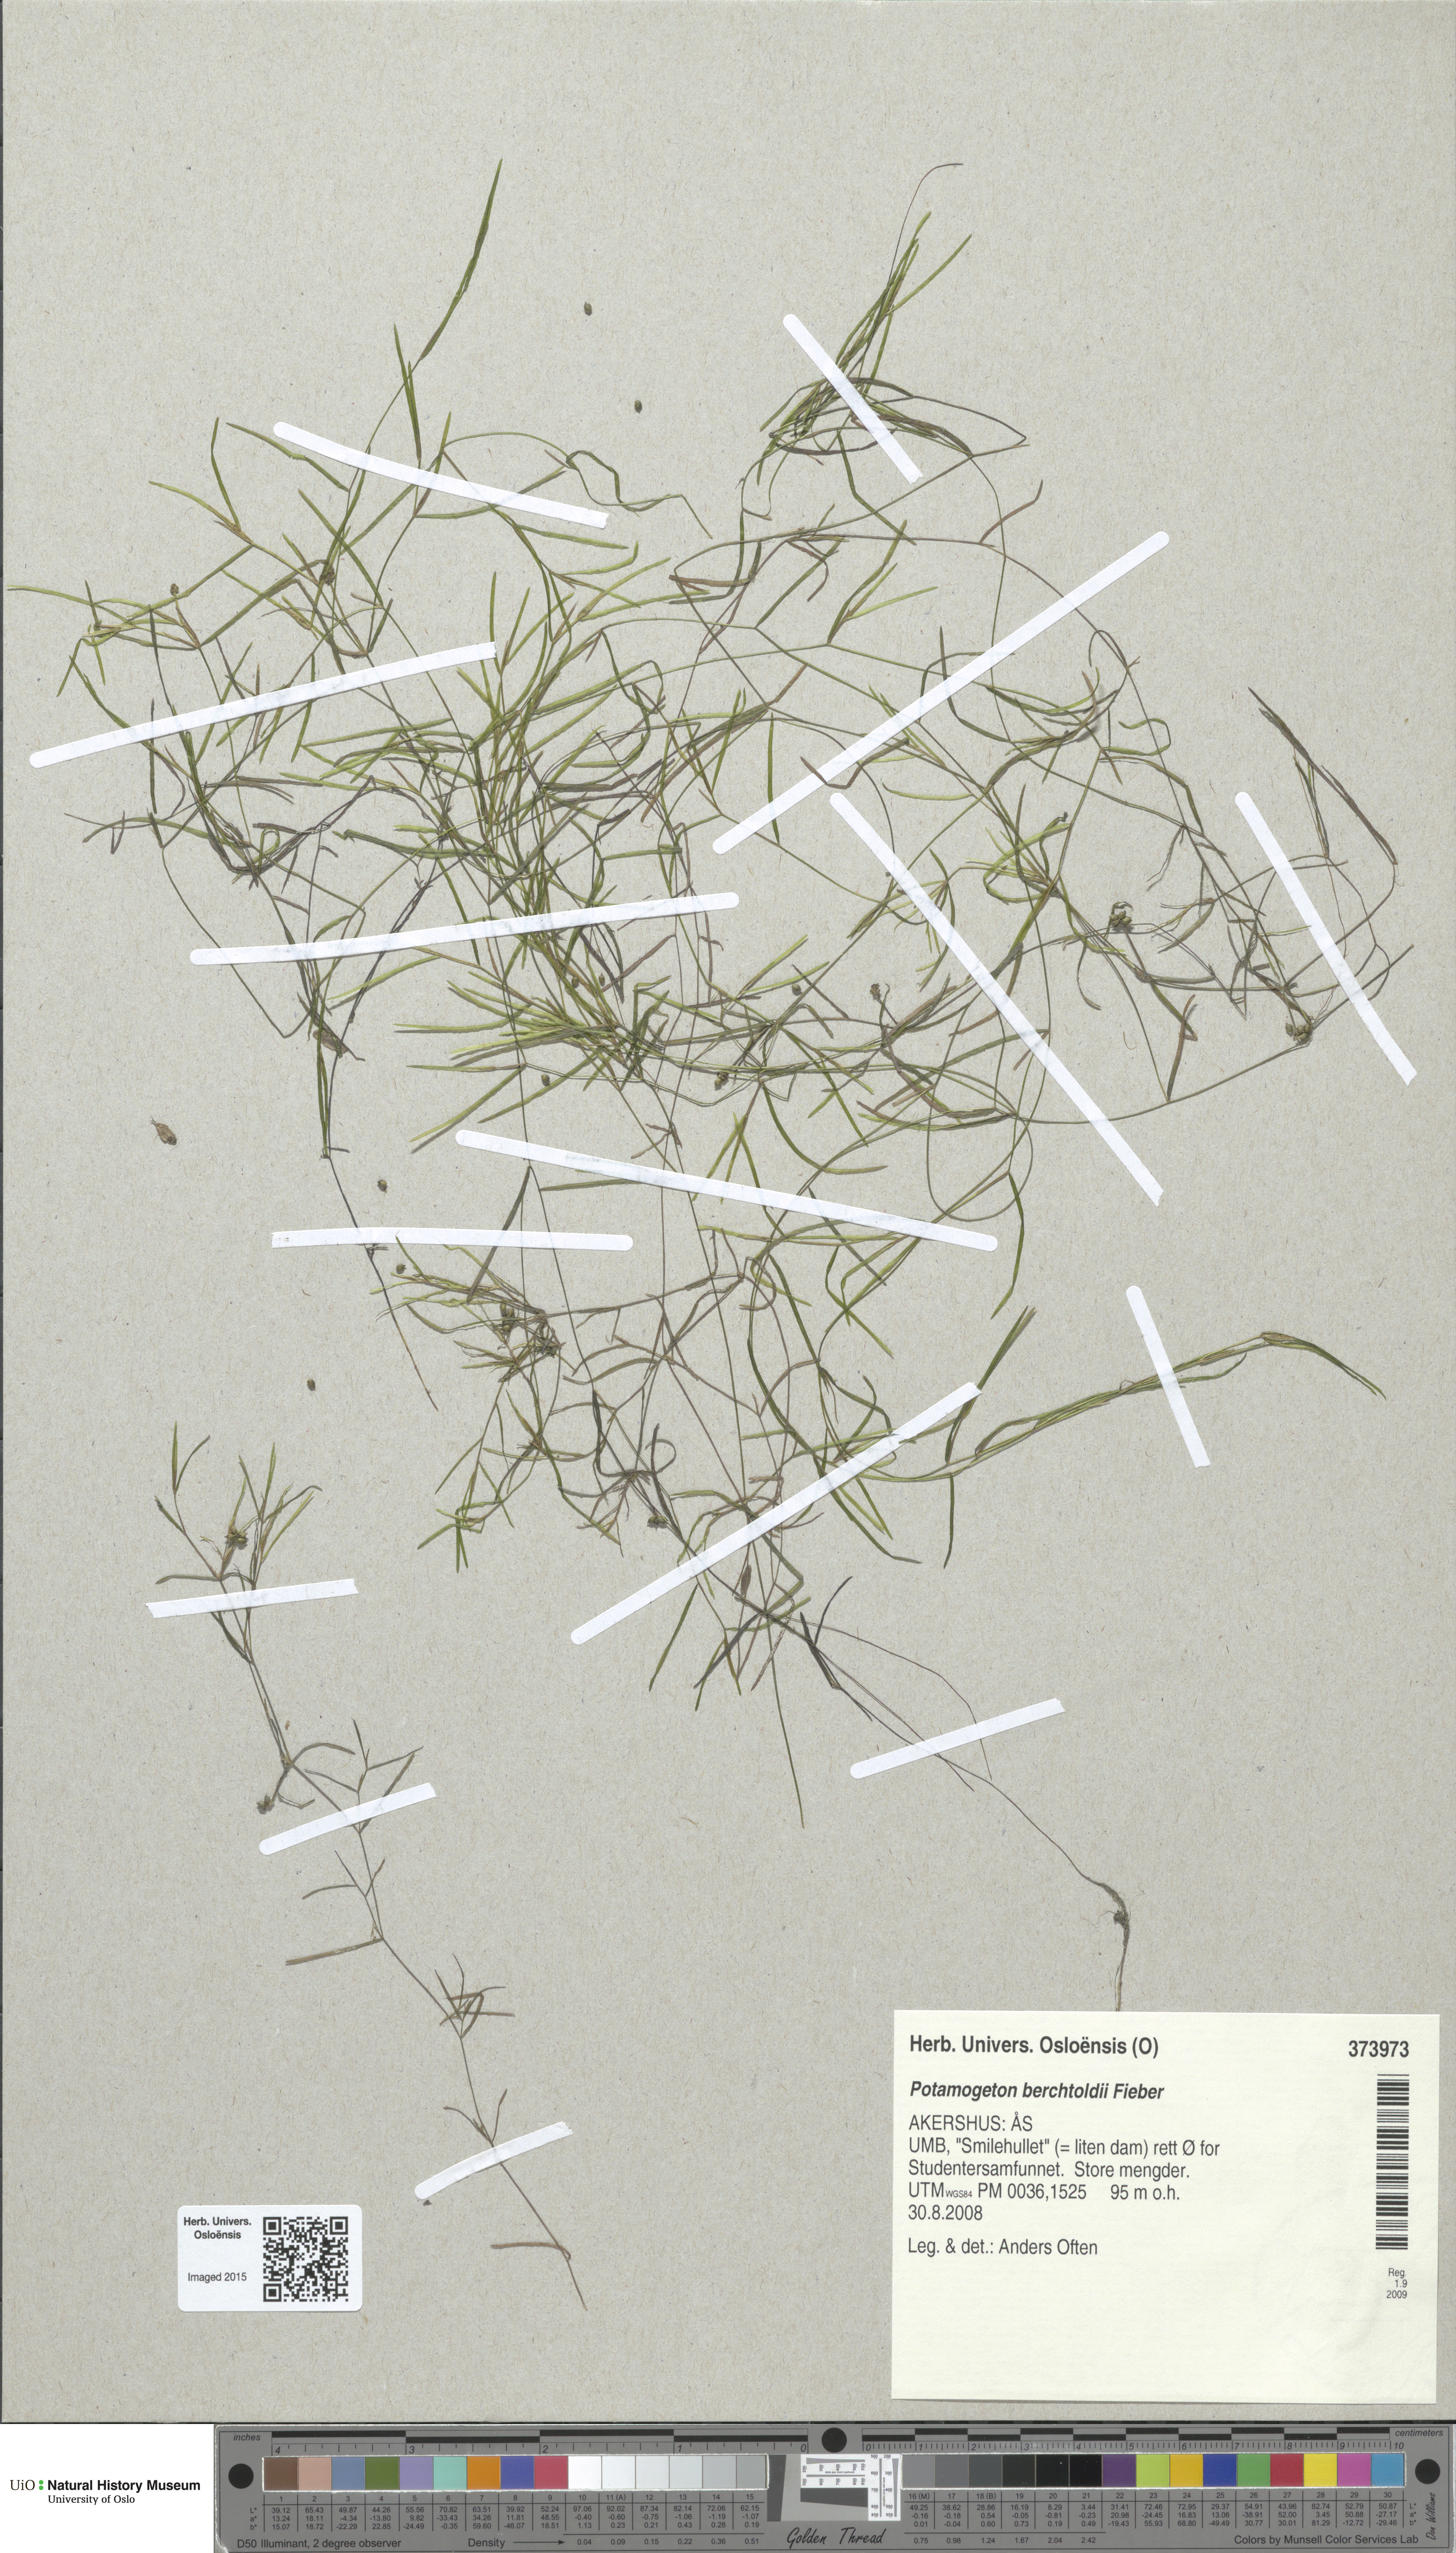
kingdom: Plantae
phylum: Tracheophyta
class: Liliopsida
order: Alismatales
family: Potamogetonaceae
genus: Potamogeton
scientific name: Potamogeton berchtoldii
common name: Small pondweed
